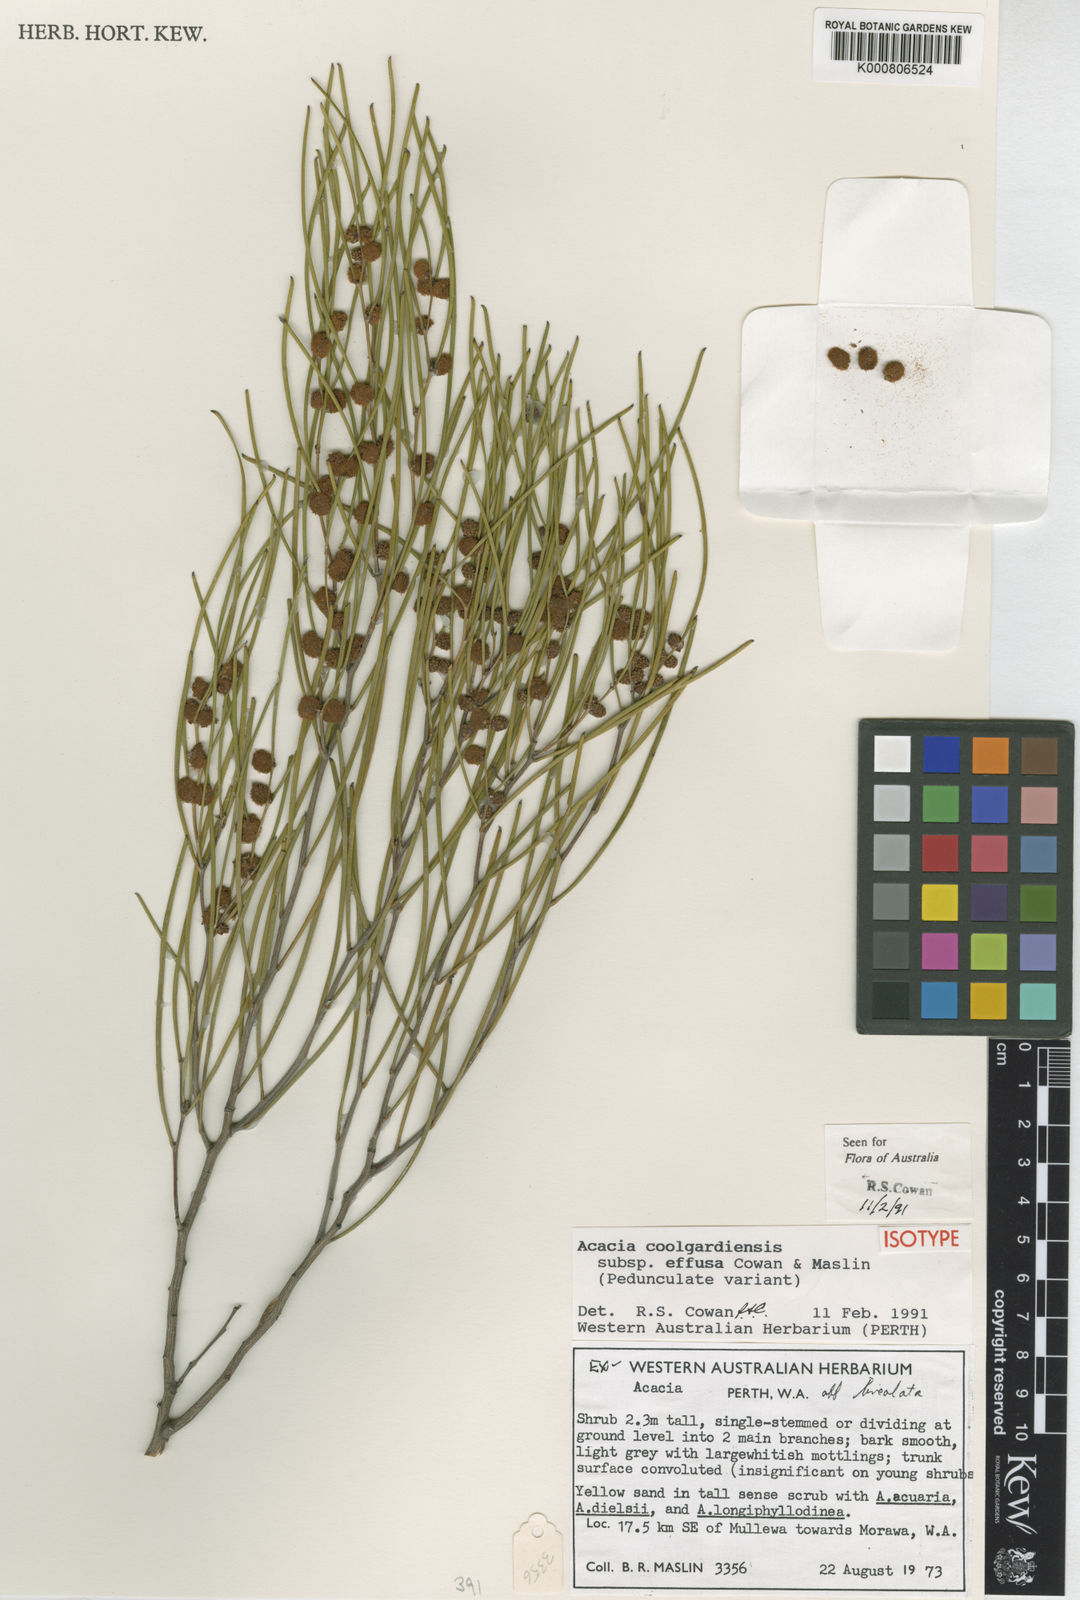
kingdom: Plantae
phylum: Tracheophyta
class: Magnoliopsida
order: Fabales
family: Fabaceae
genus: Acacia
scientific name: Acacia coolgardiensis
